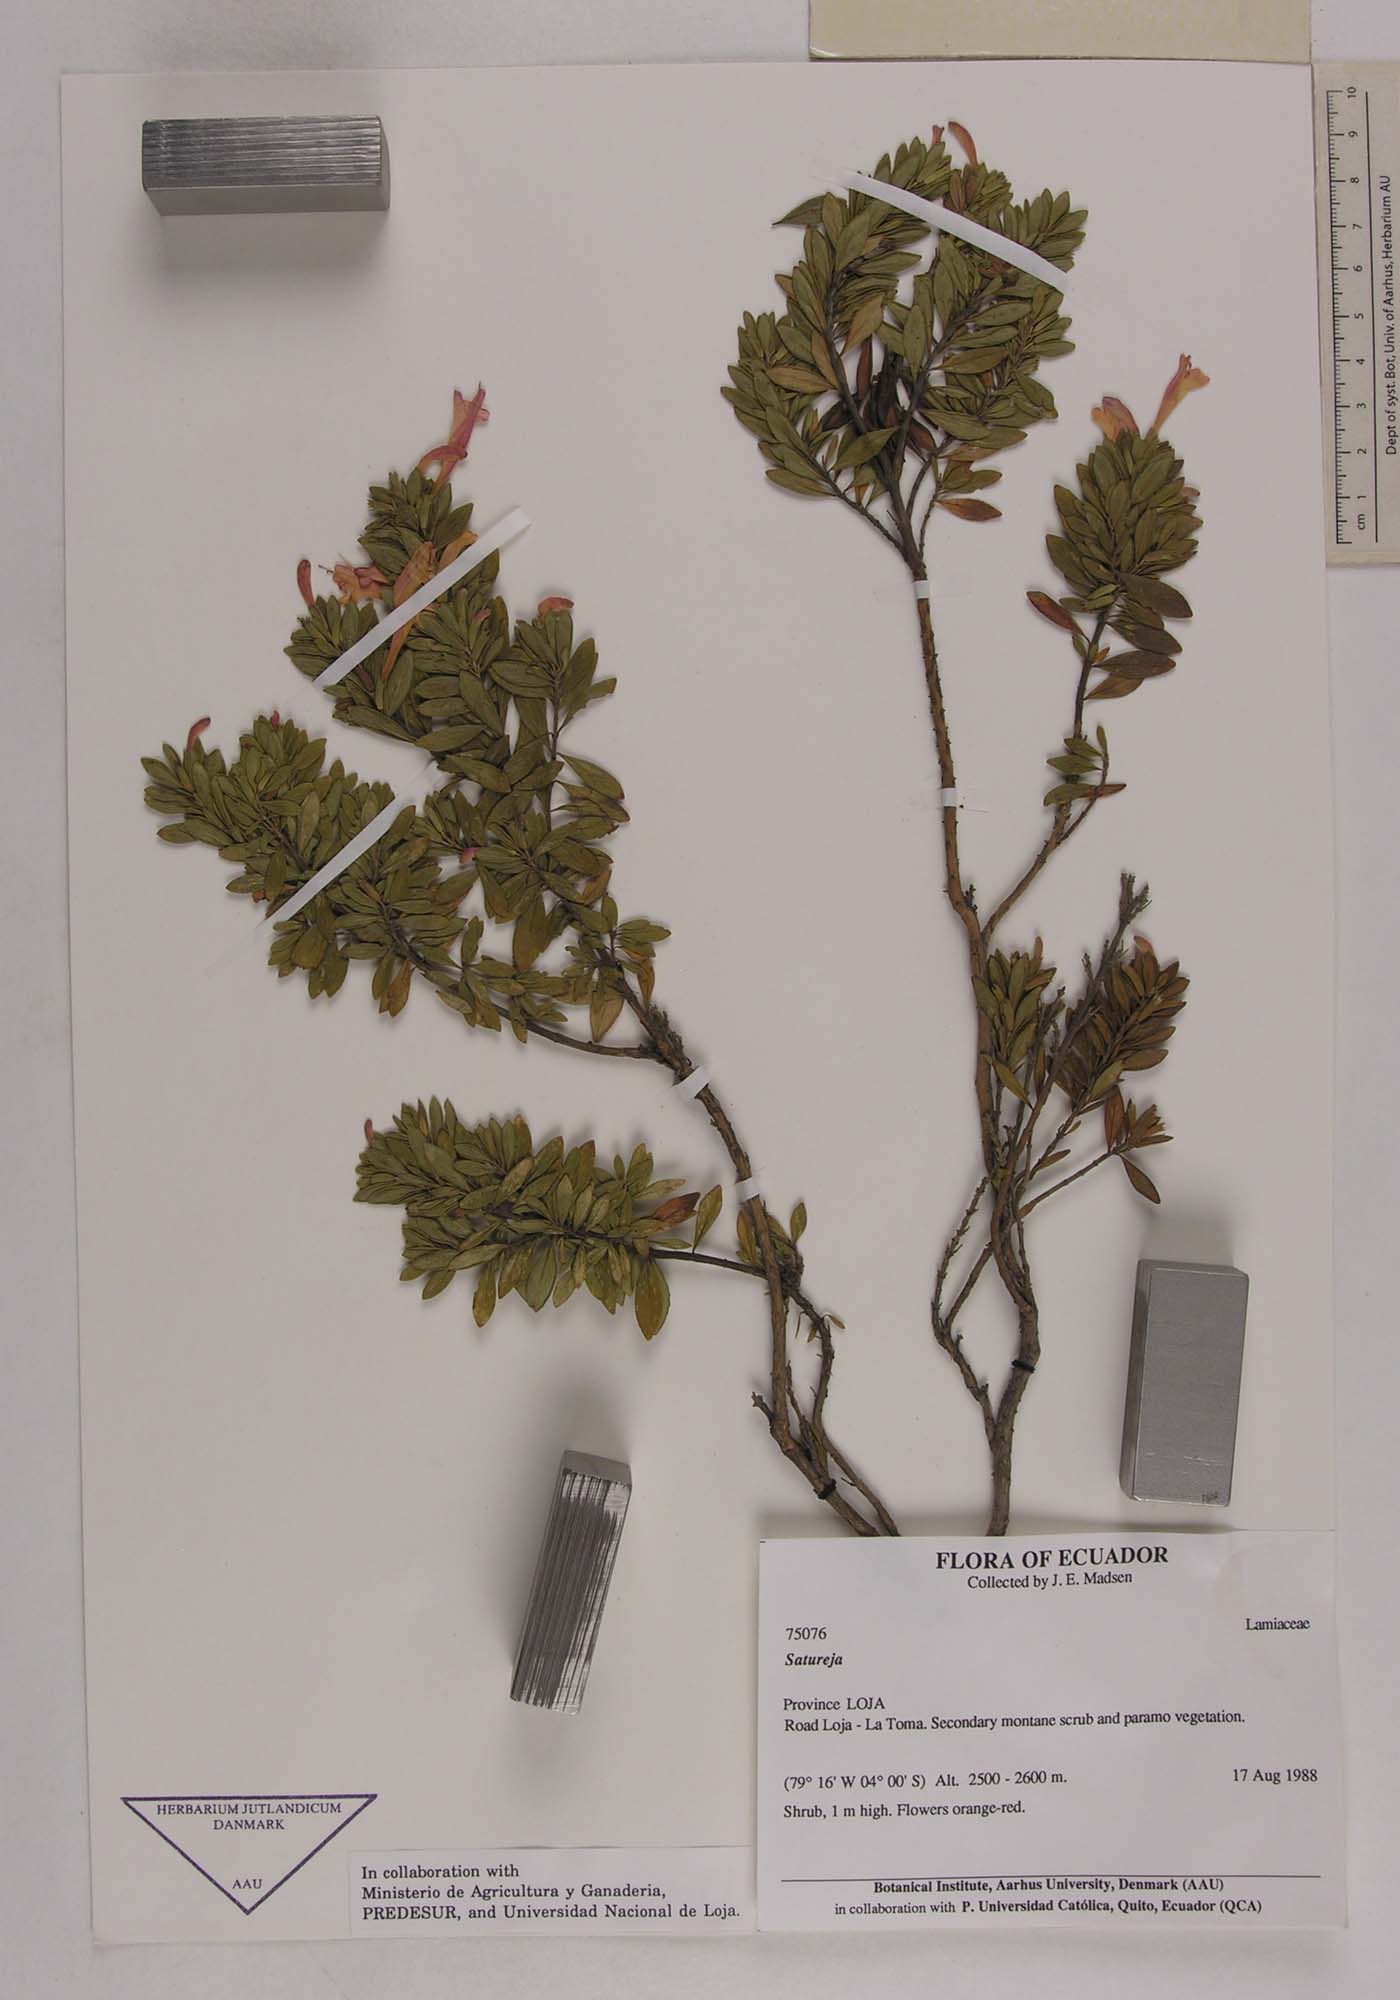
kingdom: Plantae
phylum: Tracheophyta
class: Magnoliopsida
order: Lamiales
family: Lamiaceae
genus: Satureja
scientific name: Satureja
